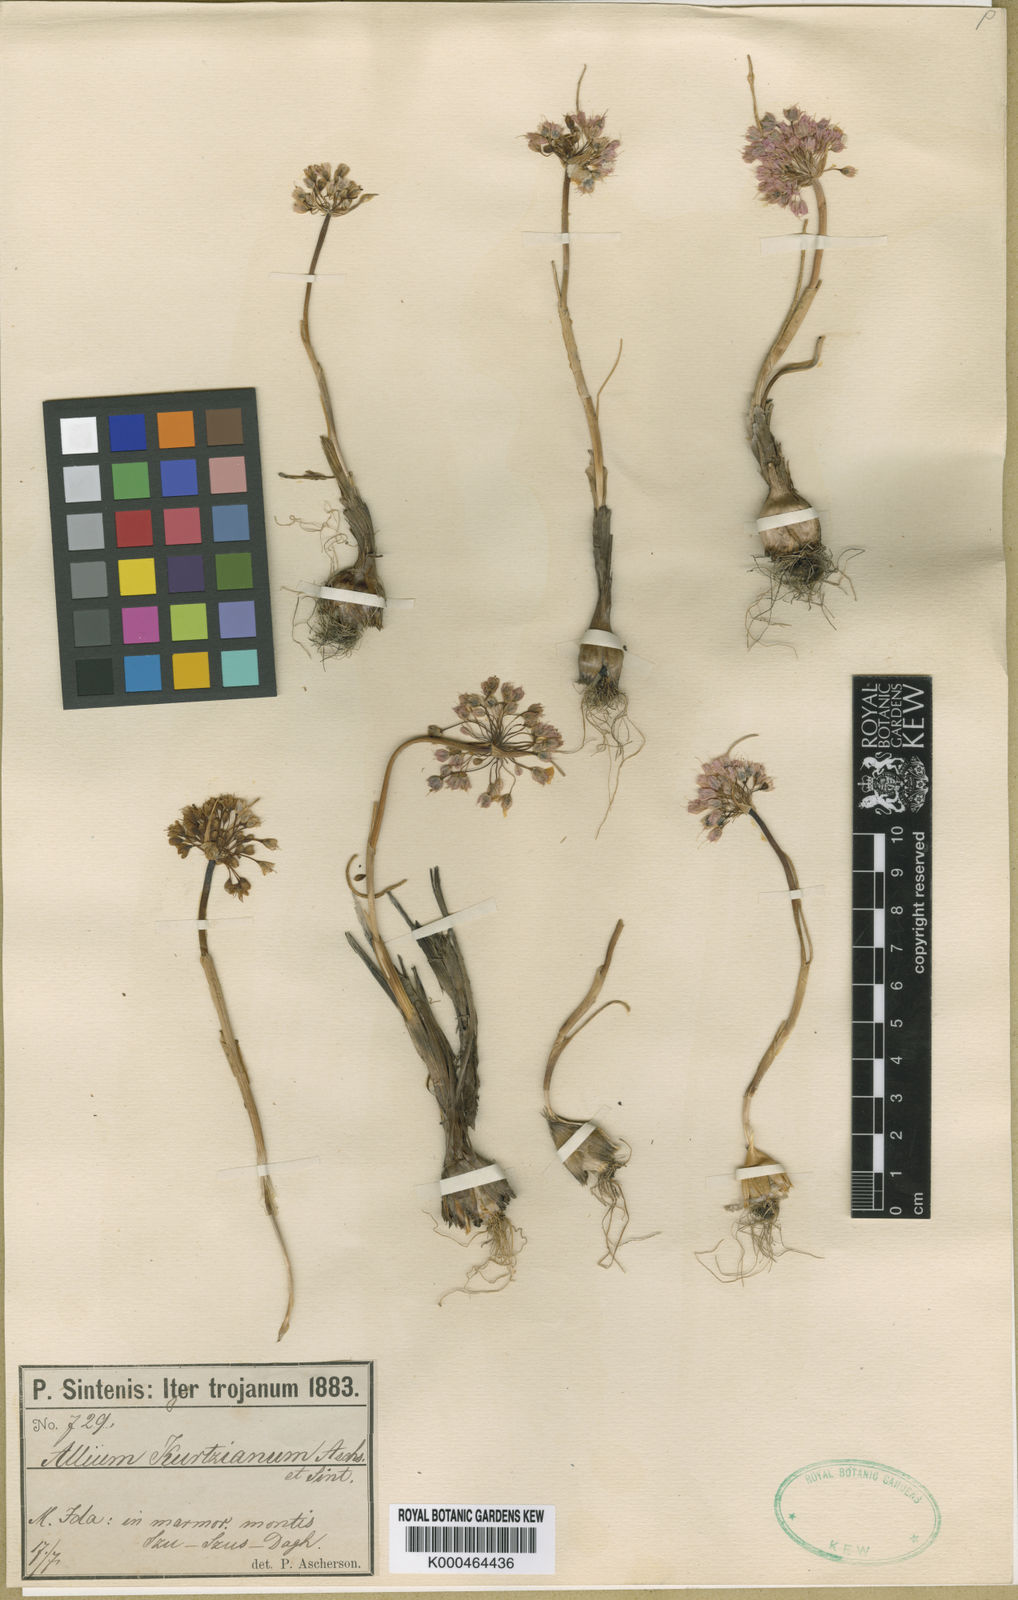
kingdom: Plantae
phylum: Tracheophyta
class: Liliopsida
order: Asparagales
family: Amaryllidaceae
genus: Allium
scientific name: Allium kurtzianum
